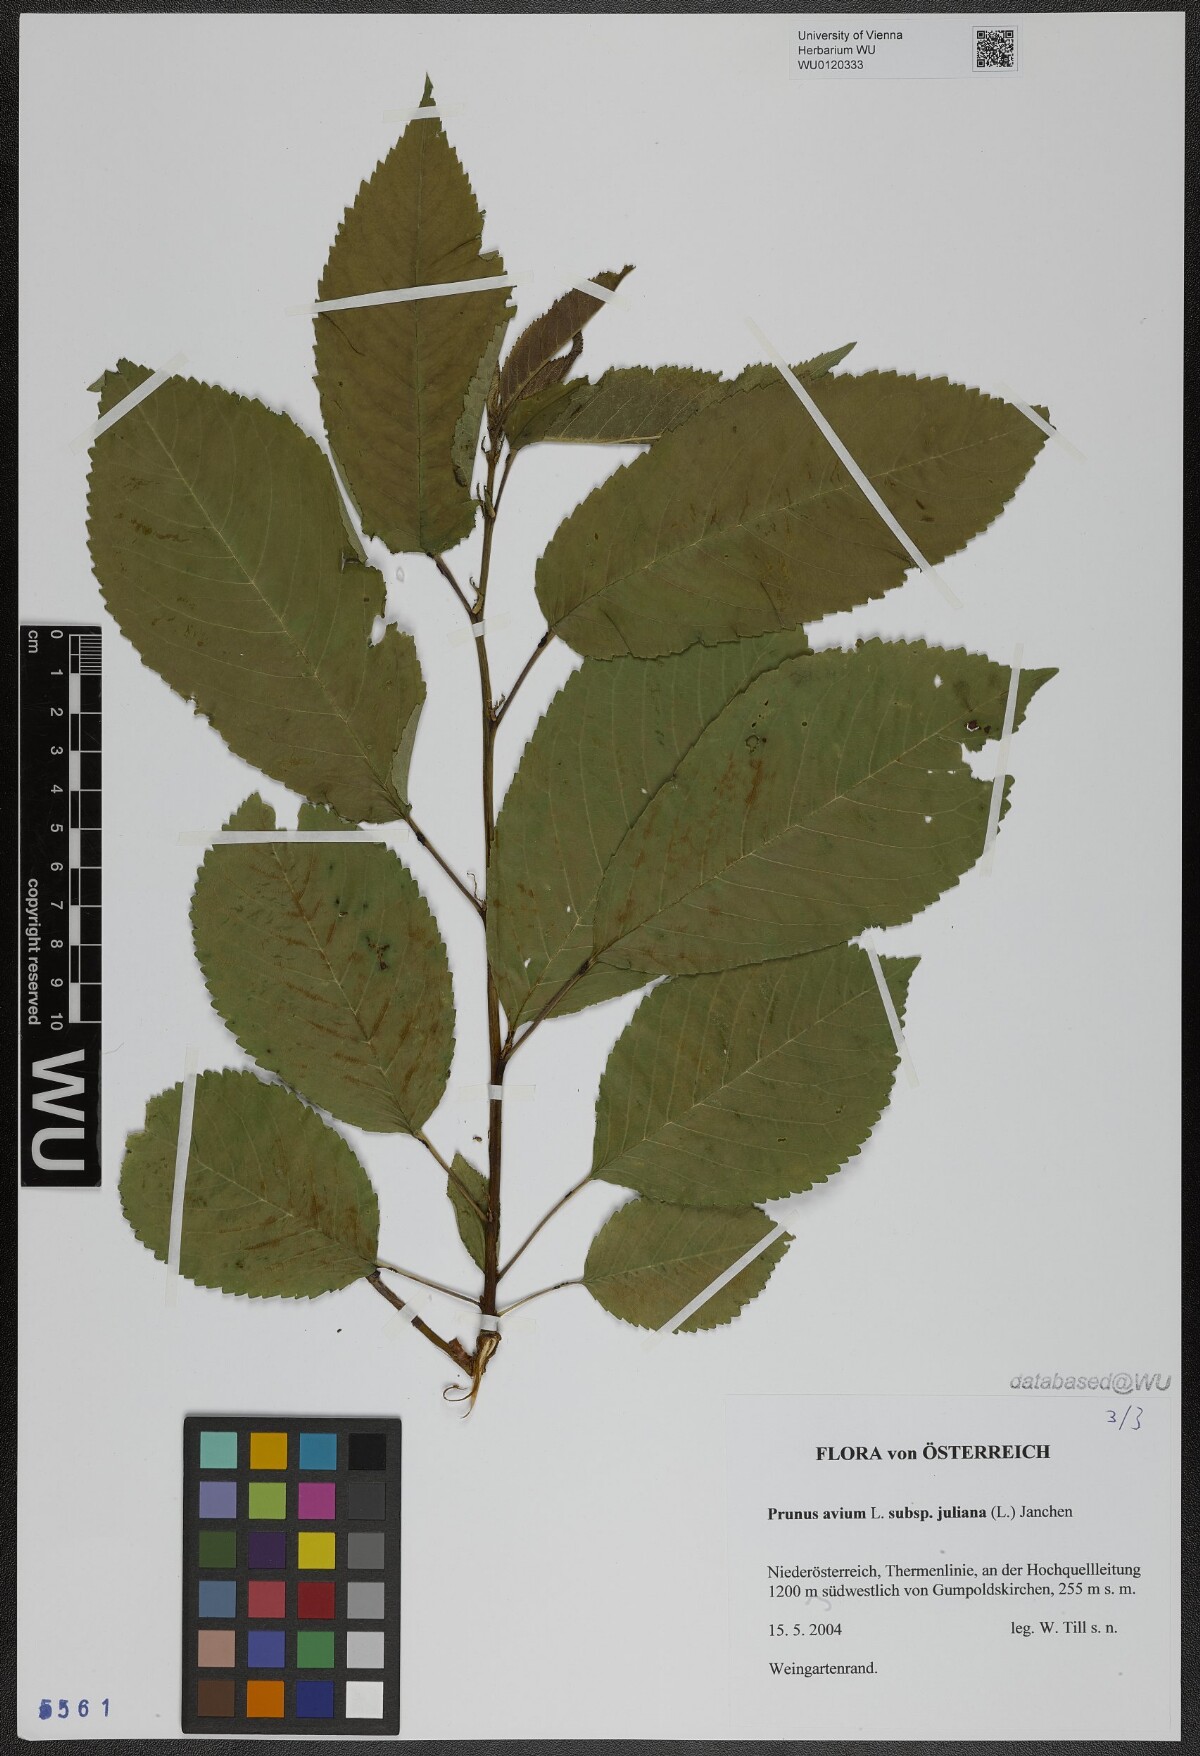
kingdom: Plantae
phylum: Tracheophyta
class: Magnoliopsida
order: Rosales
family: Rosaceae
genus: Prunus
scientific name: Prunus avium
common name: Sweet cherry
